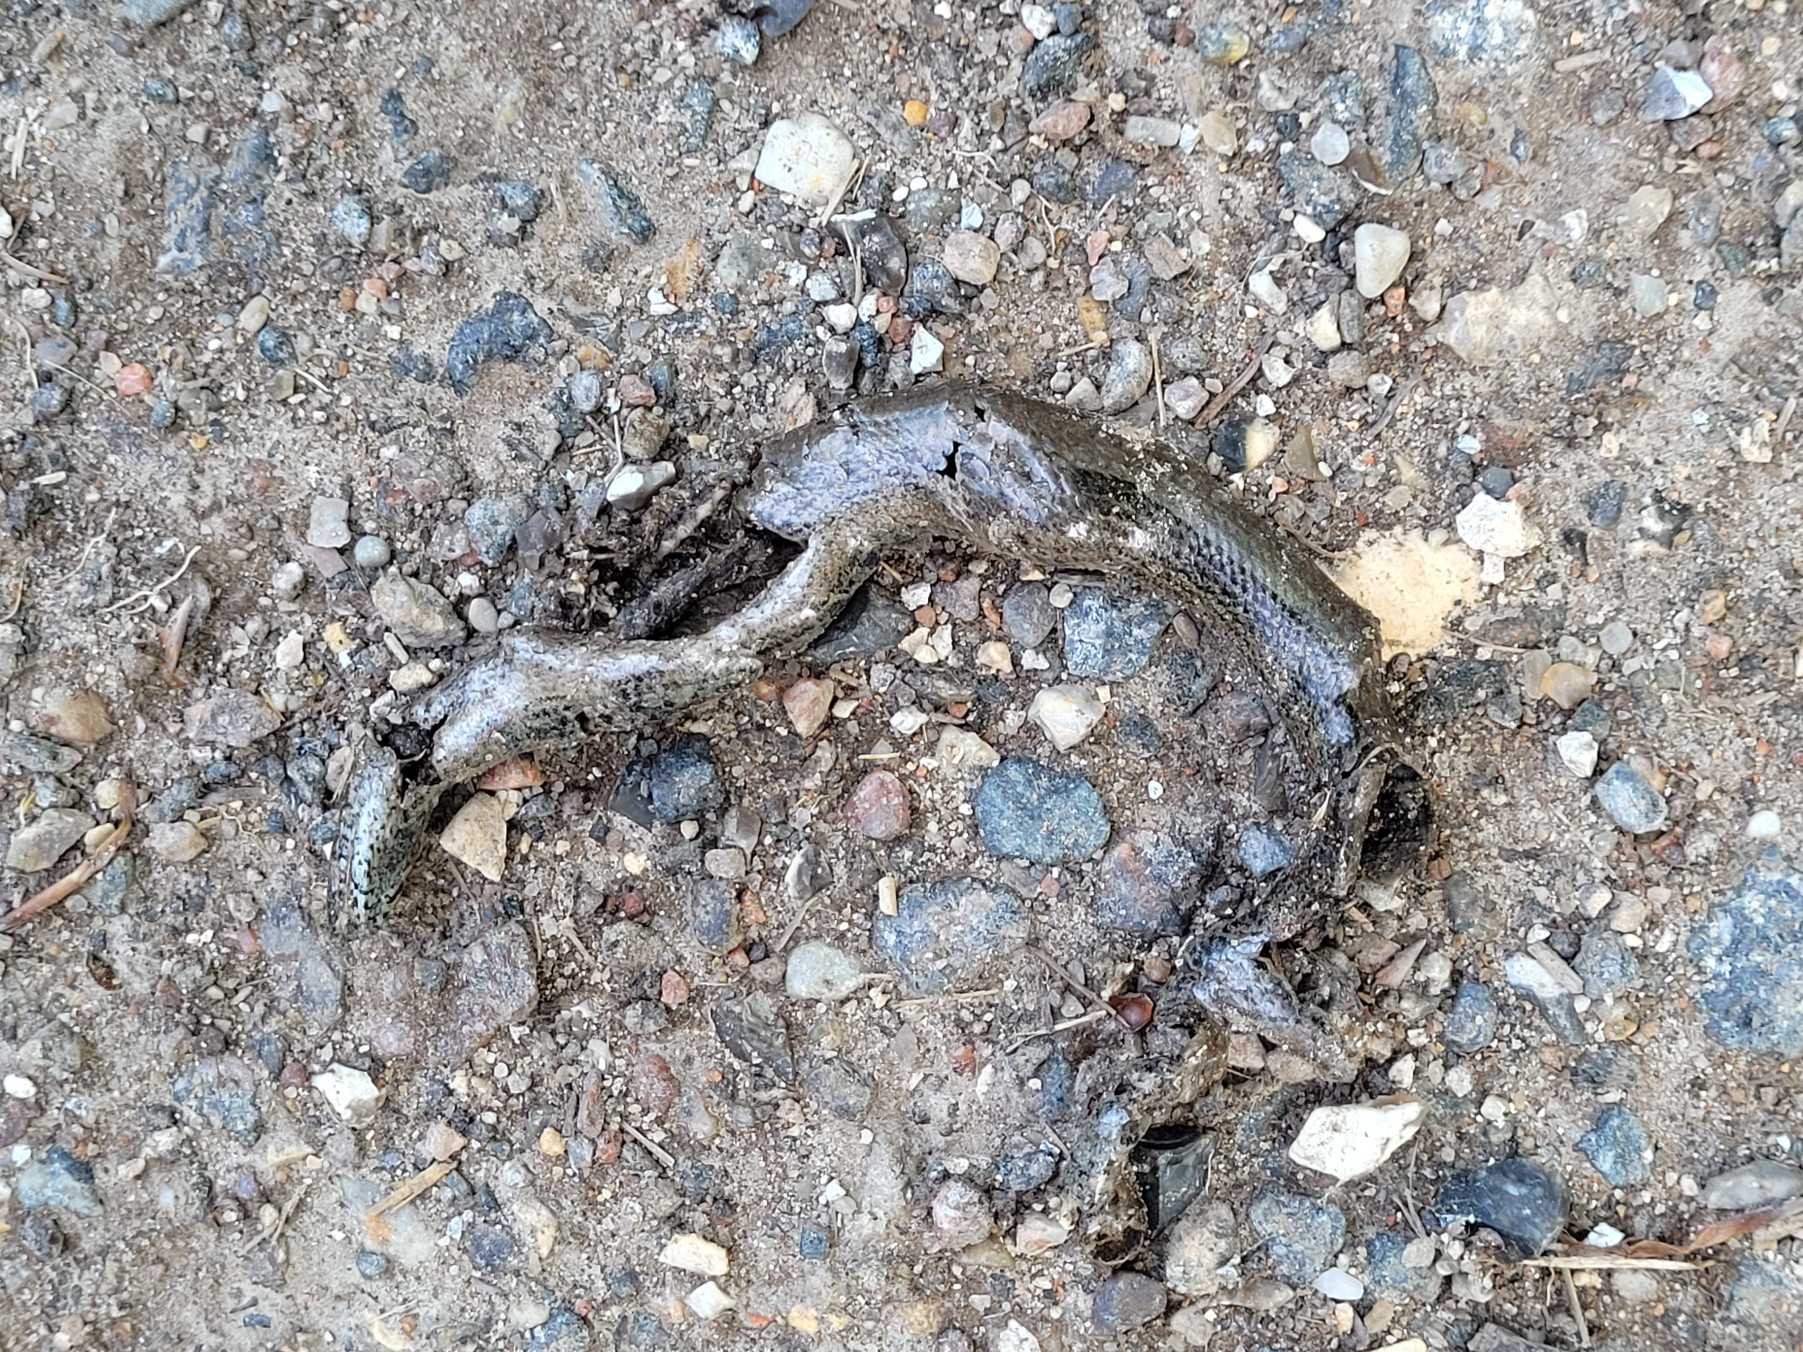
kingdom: Animalia
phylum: Chordata
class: Squamata
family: Anguidae
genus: Anguis
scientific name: Anguis fragilis
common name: Stålorm
